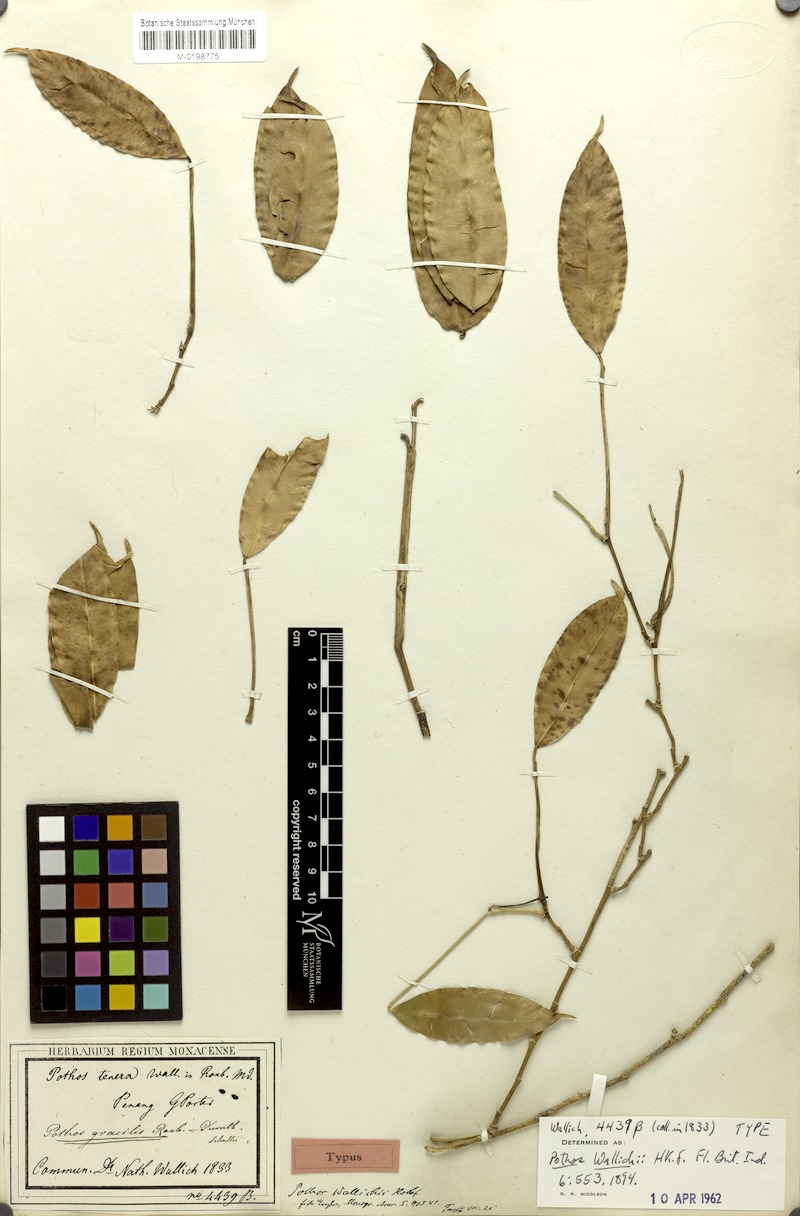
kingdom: Plantae
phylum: Tracheophyta
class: Liliopsida
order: Alismatales
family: Araceae
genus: Pothos
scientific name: Pothos barberianus
